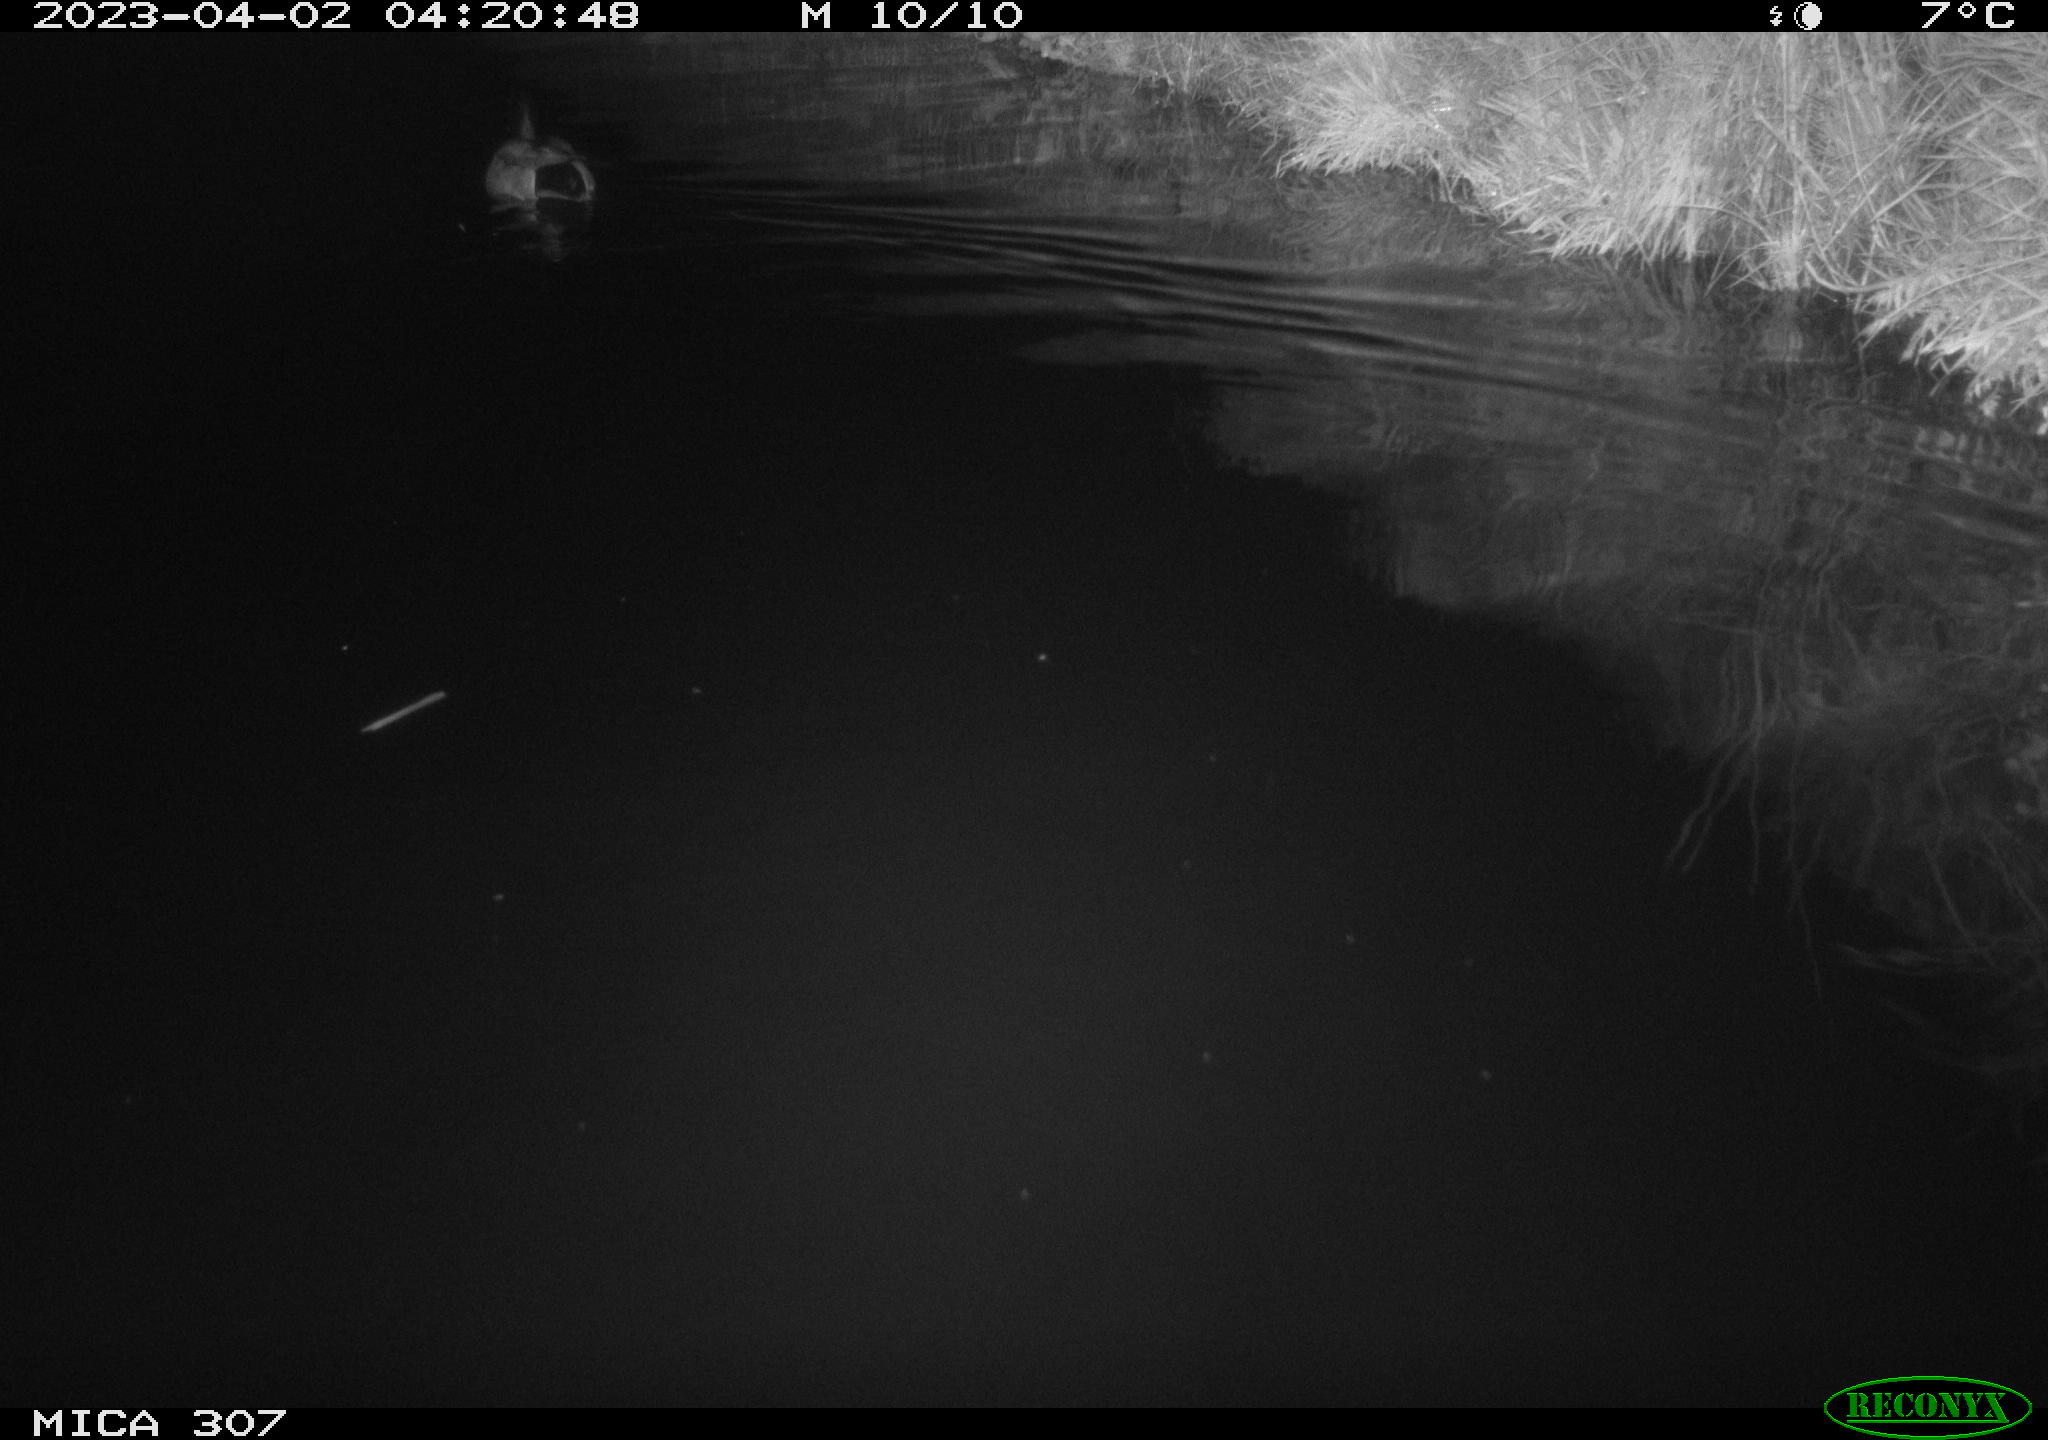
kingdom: Animalia
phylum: Chordata
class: Aves
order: Anseriformes
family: Anatidae
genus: Anas
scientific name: Anas
